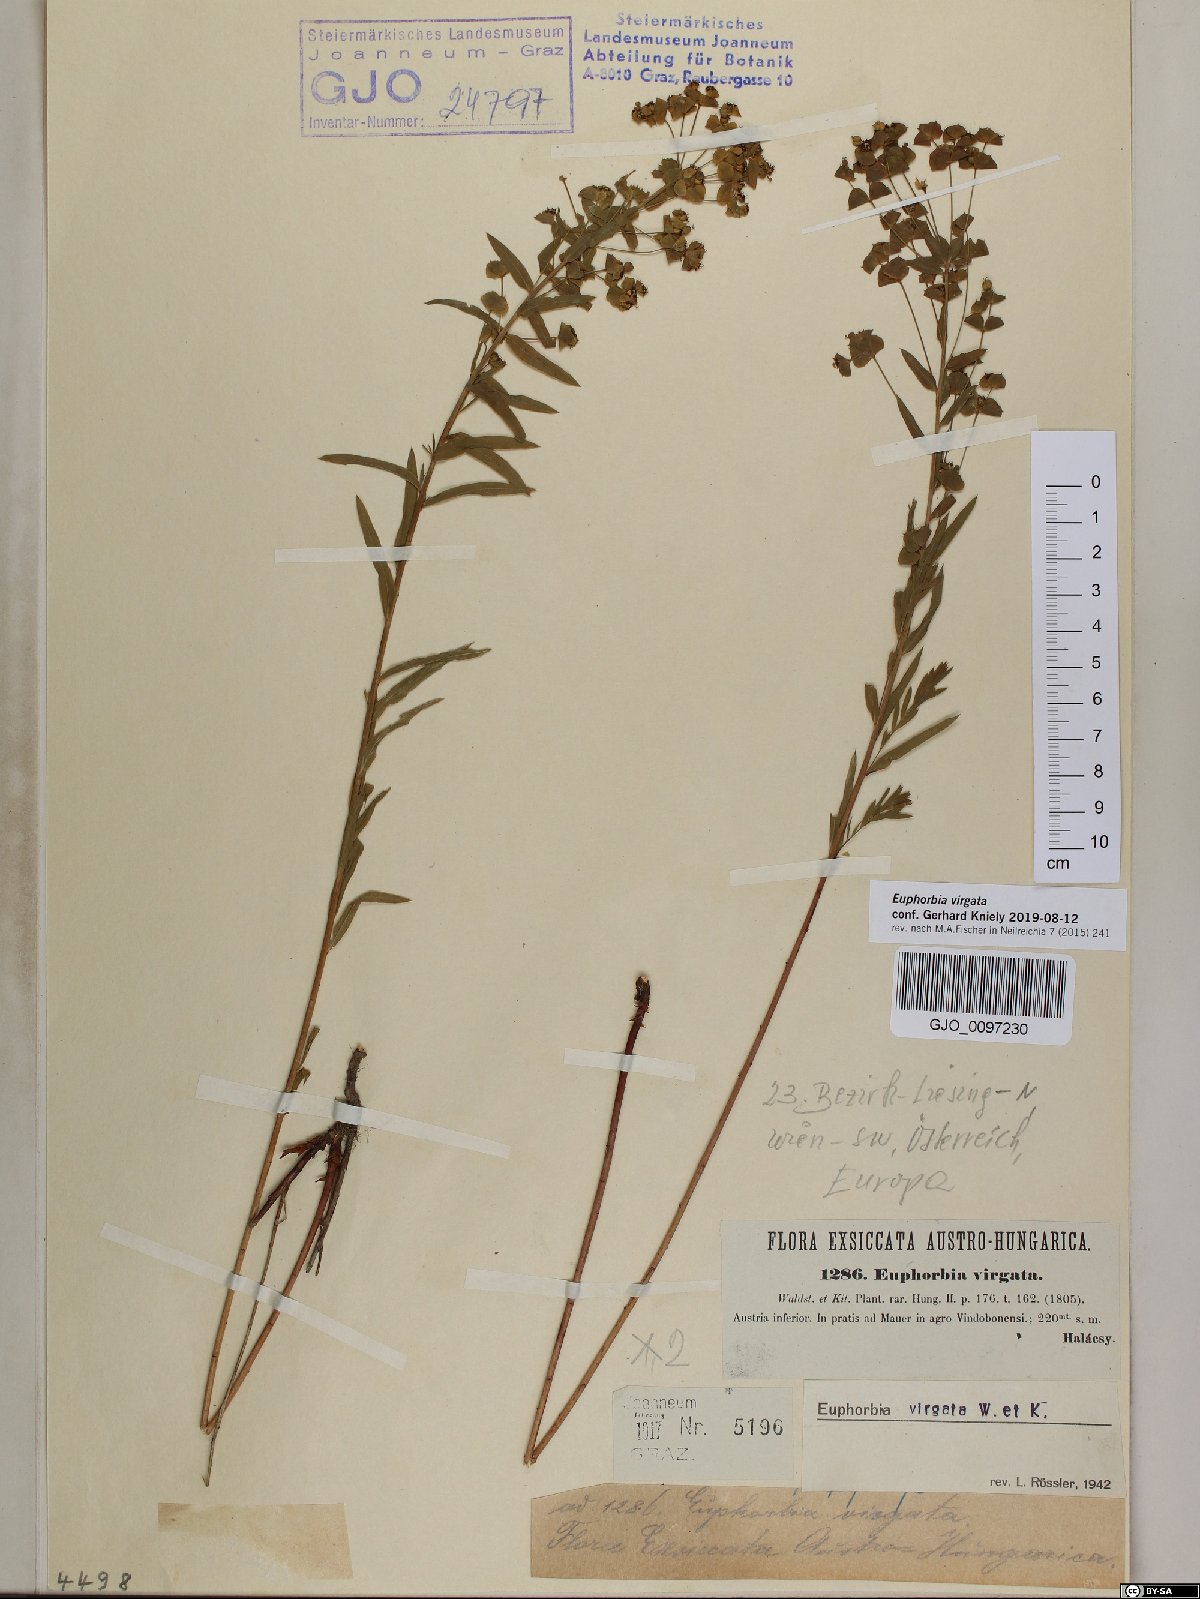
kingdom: Plantae
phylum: Tracheophyta
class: Magnoliopsida
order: Malpighiales
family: Euphorbiaceae
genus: Euphorbia
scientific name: Euphorbia virgata
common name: Leafy spurge
